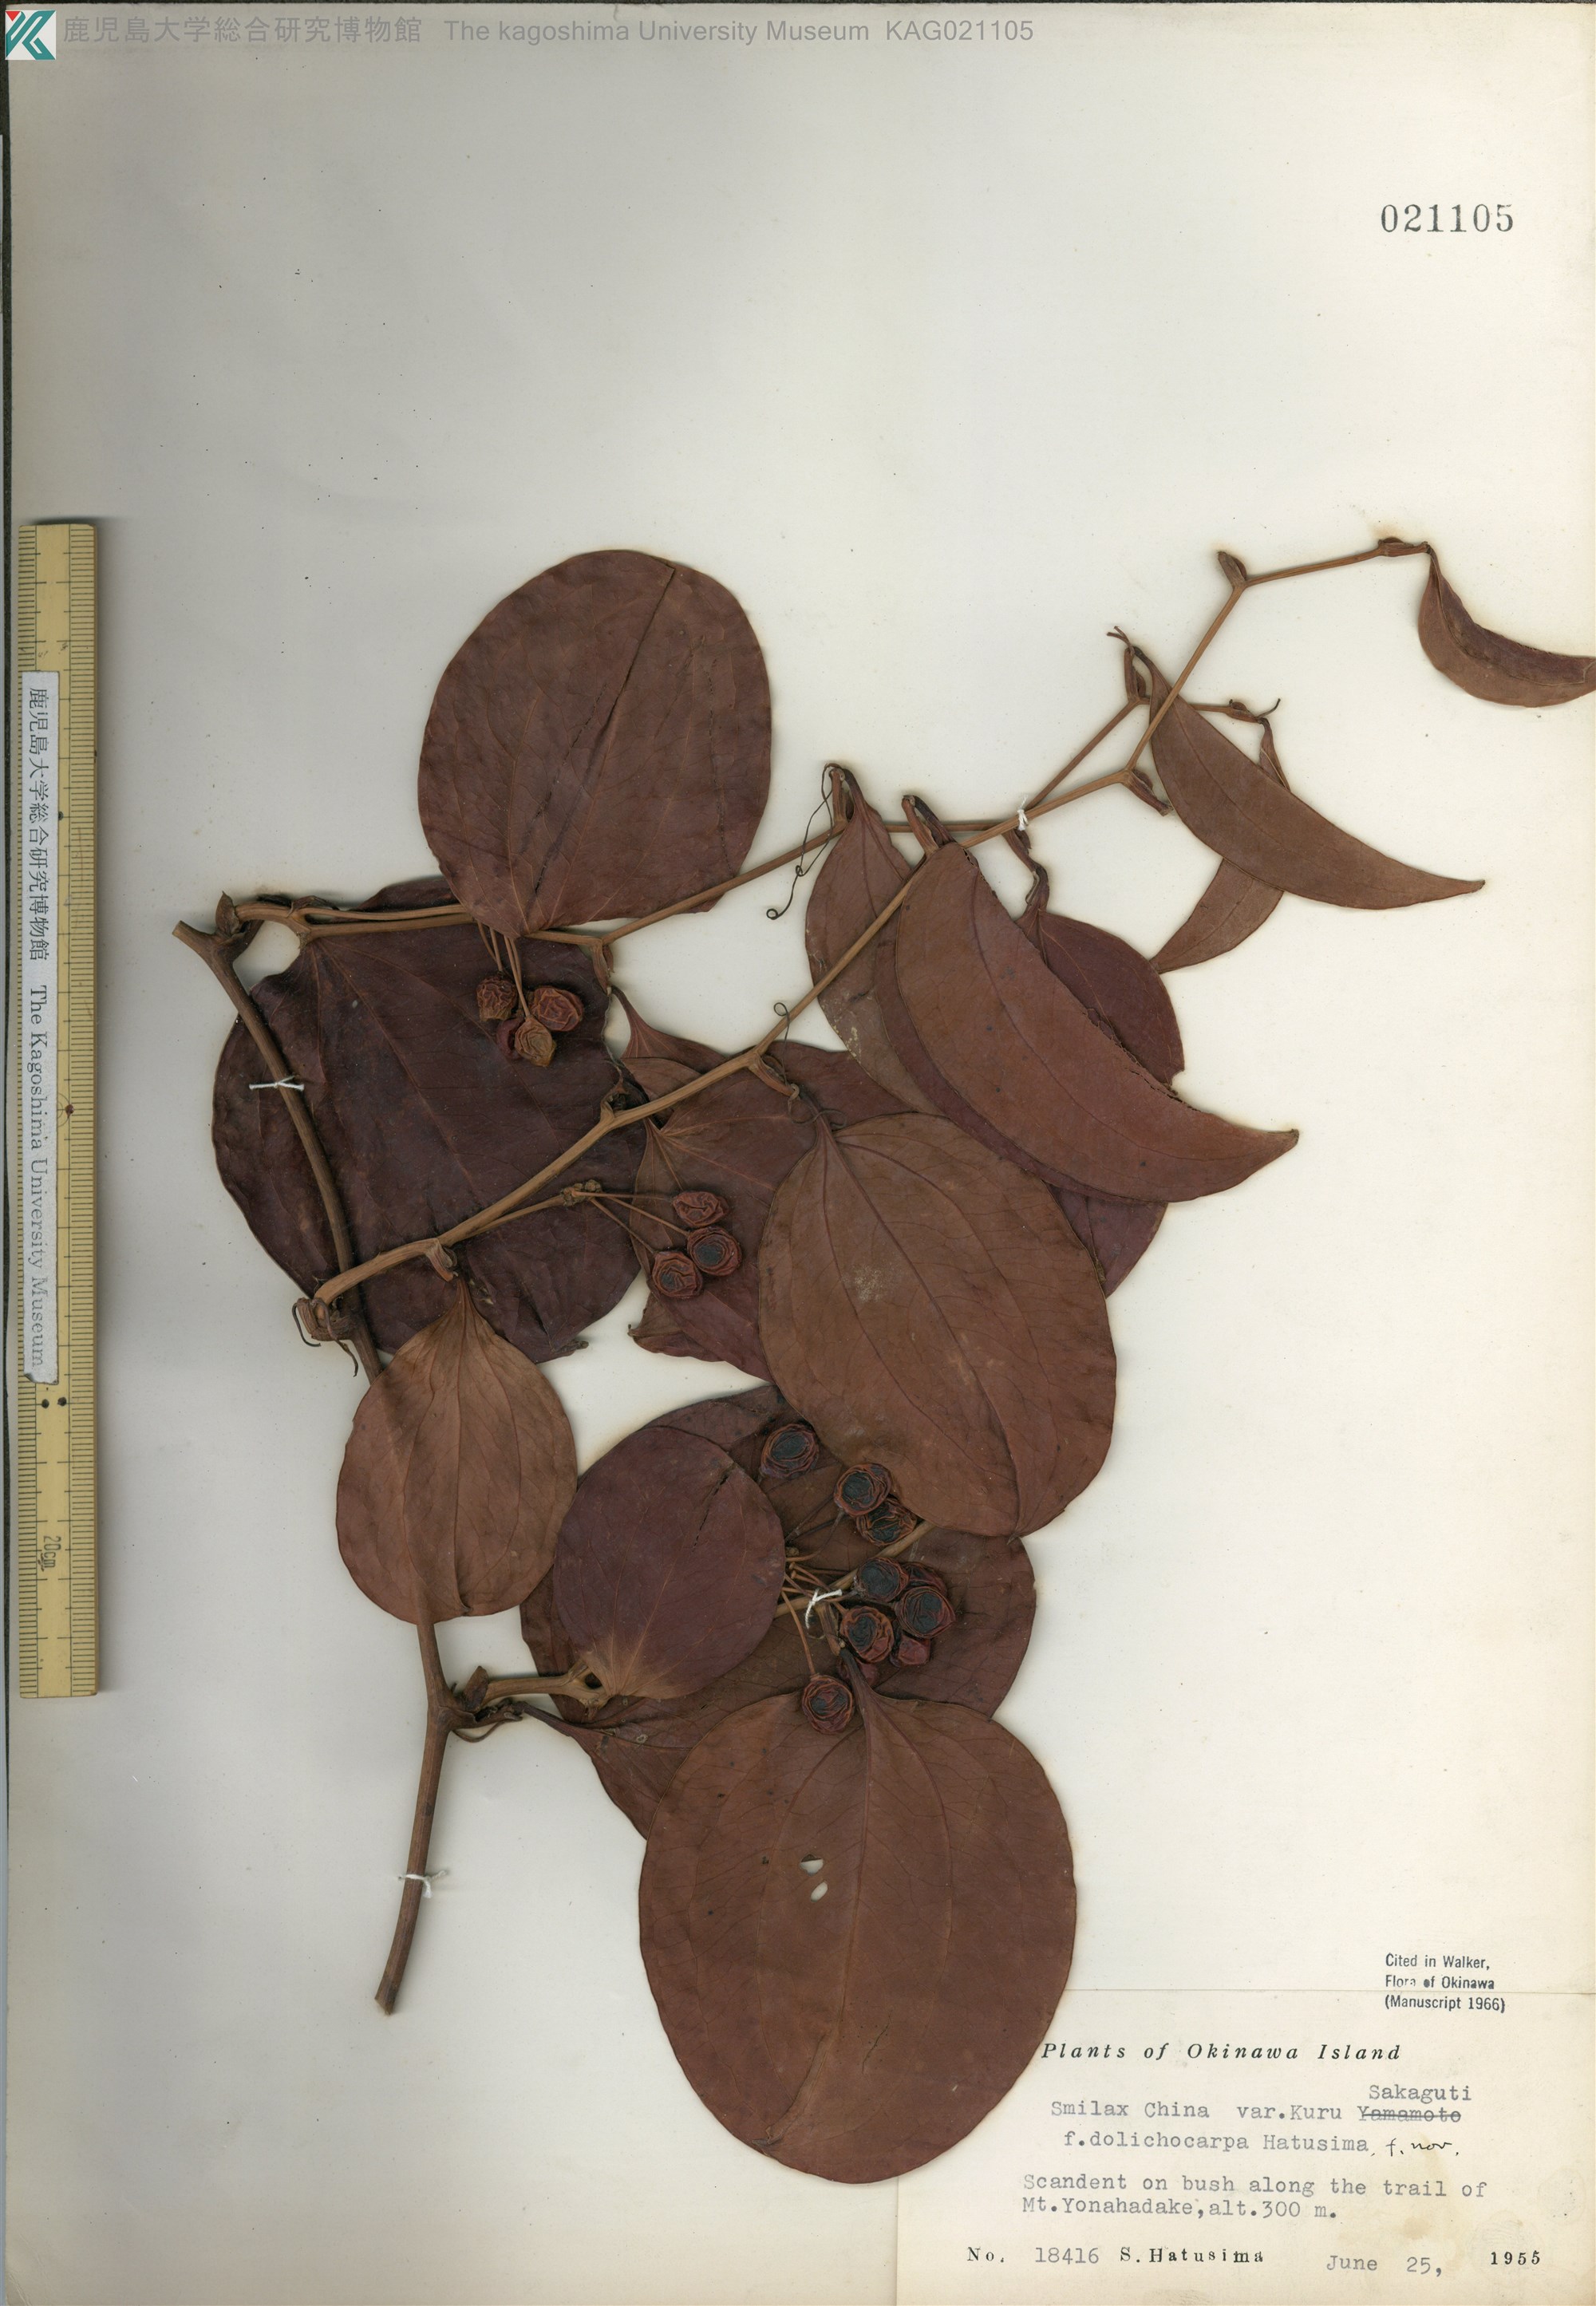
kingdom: Plantae
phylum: Tracheophyta
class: Liliopsida
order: Liliales
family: Smilacaceae
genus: Smilax
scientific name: Smilax china
